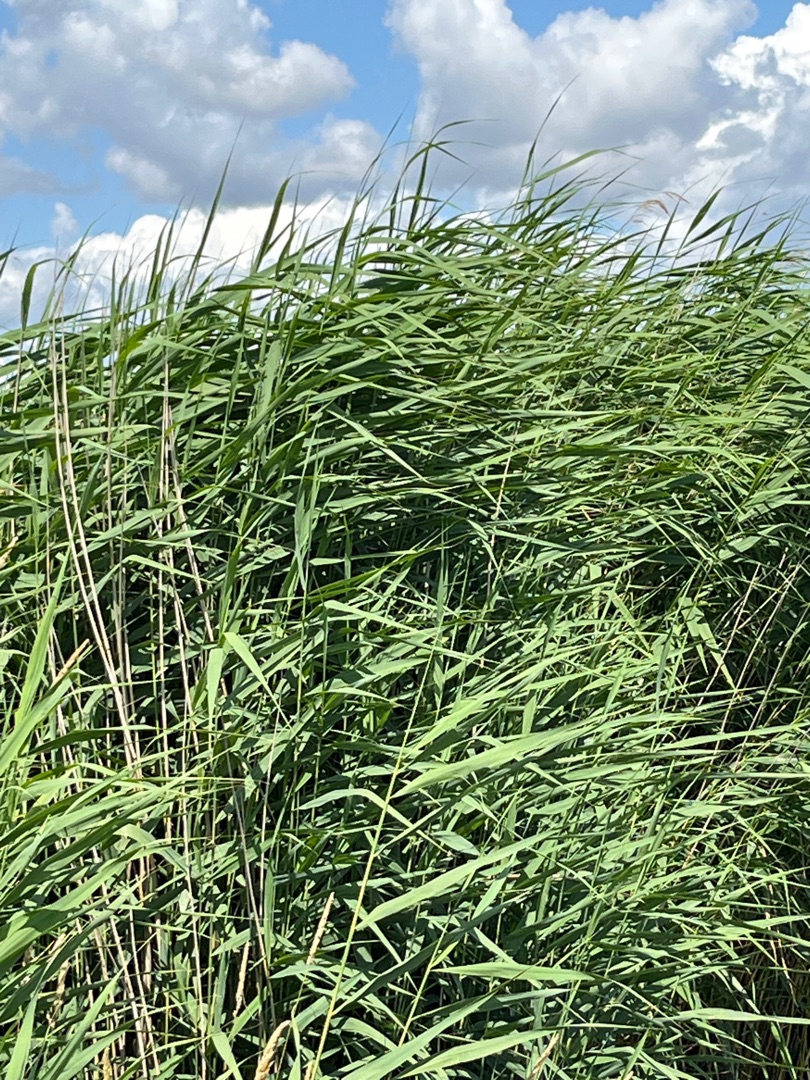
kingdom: Plantae
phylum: Tracheophyta
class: Liliopsida
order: Poales
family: Poaceae
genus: Phragmites
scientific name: Phragmites australis
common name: Tagrør
